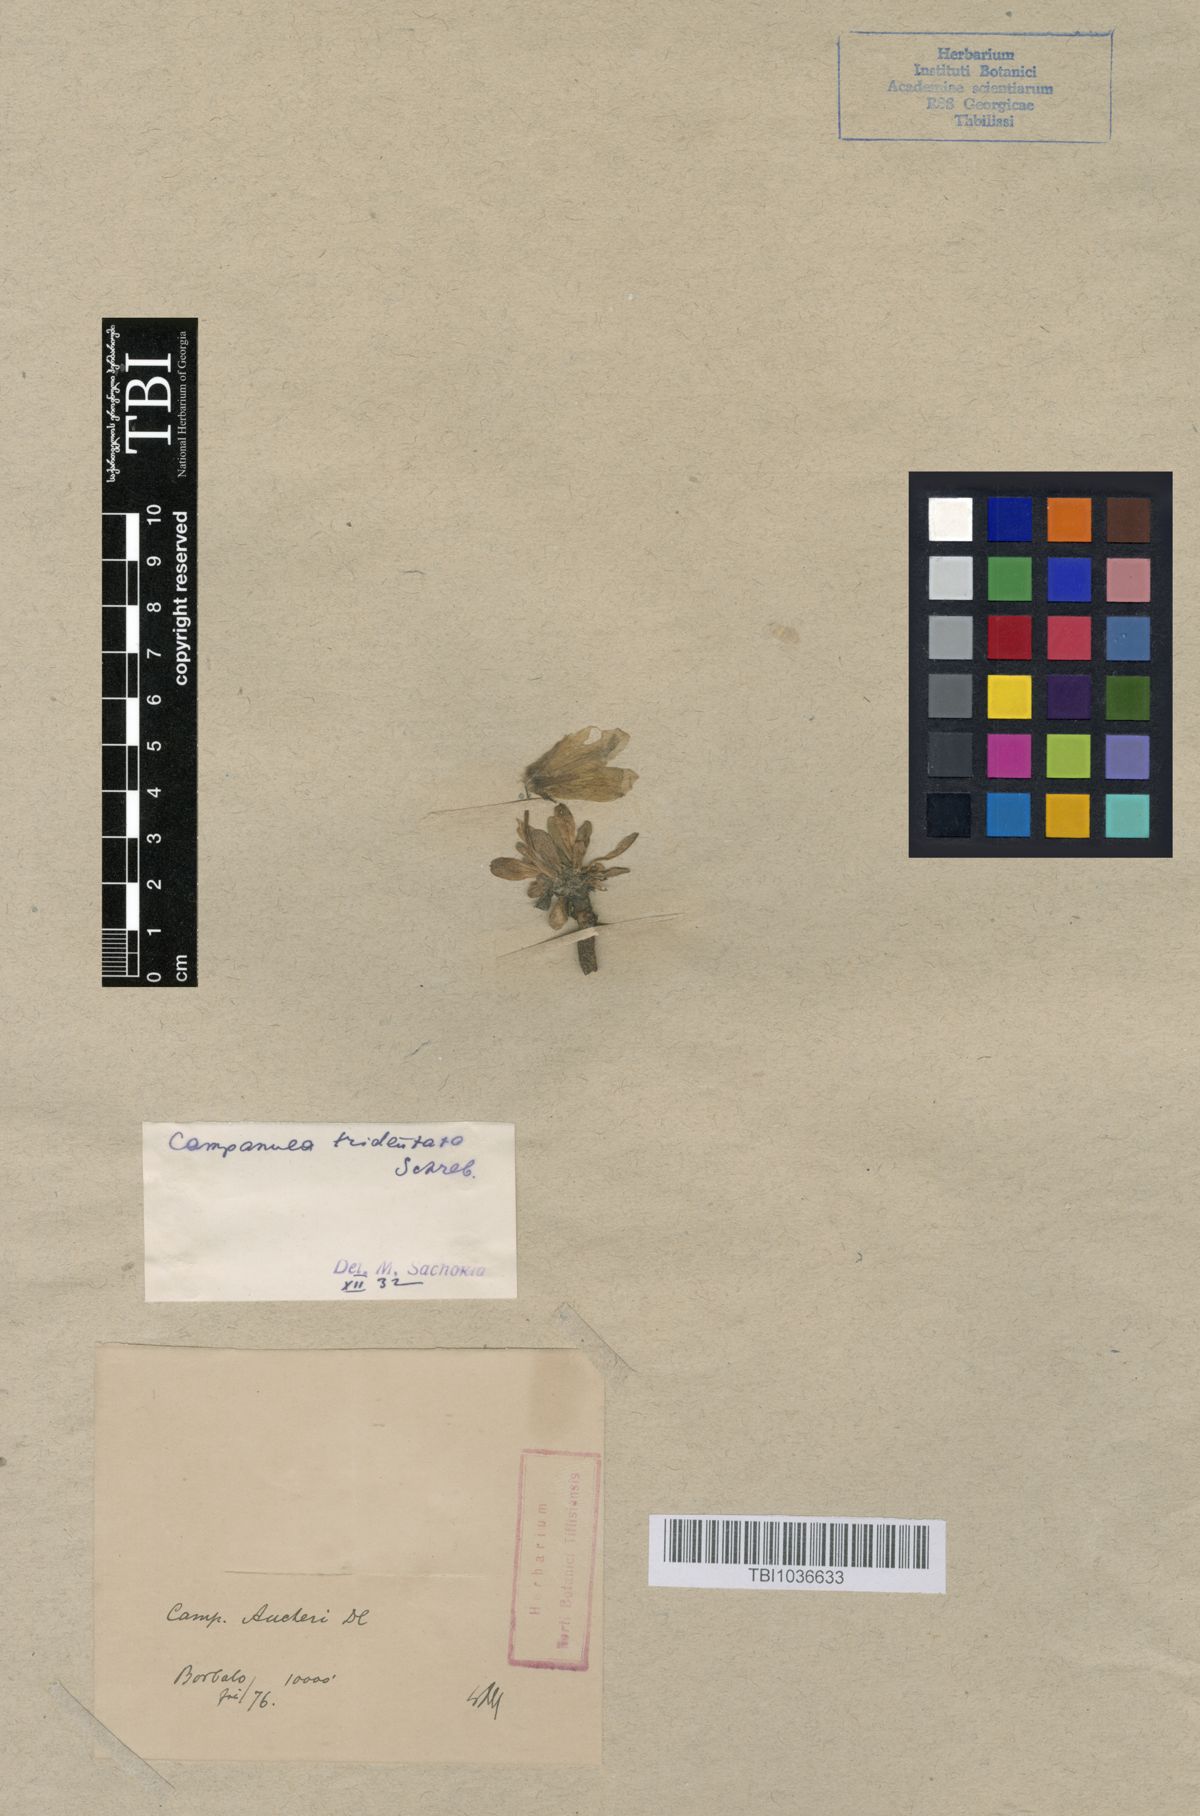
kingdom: Plantae
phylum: Tracheophyta
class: Magnoliopsida
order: Asterales
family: Campanulaceae
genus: Campanula
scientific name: Campanula tridentata
